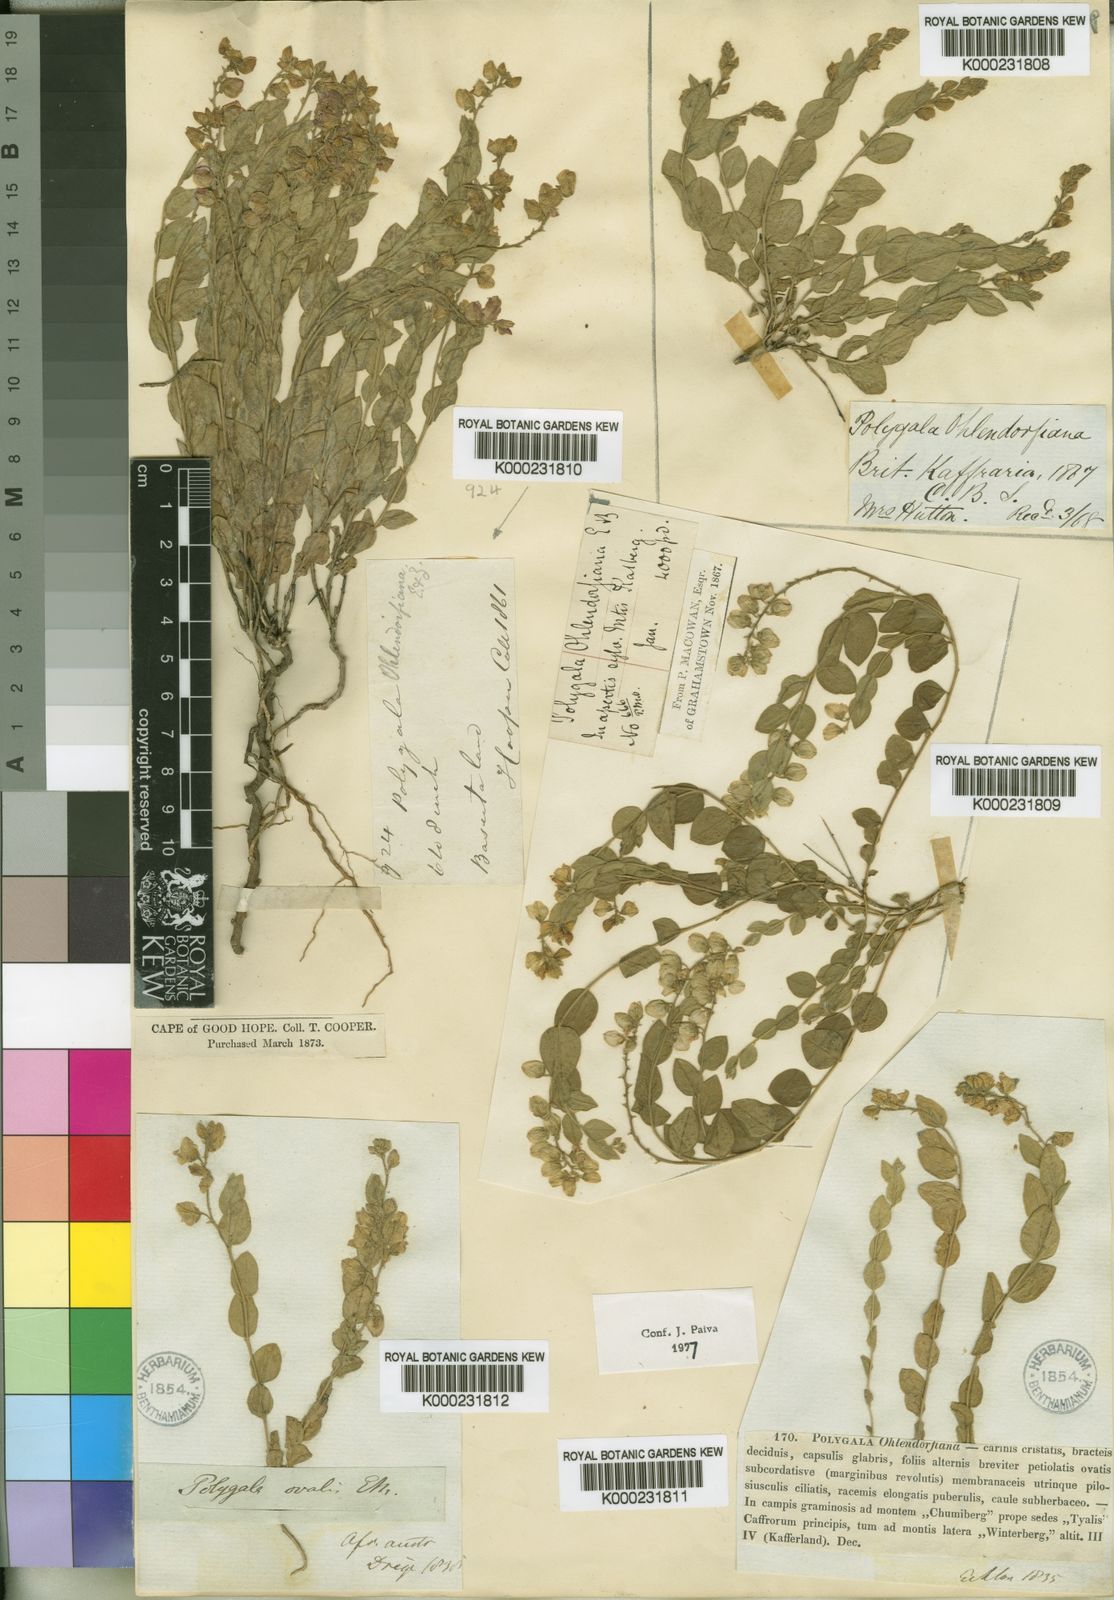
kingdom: Plantae
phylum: Tracheophyta
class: Magnoliopsida
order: Fabales
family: Polygalaceae
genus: Polygala
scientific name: Polygala ohlendorfiana
